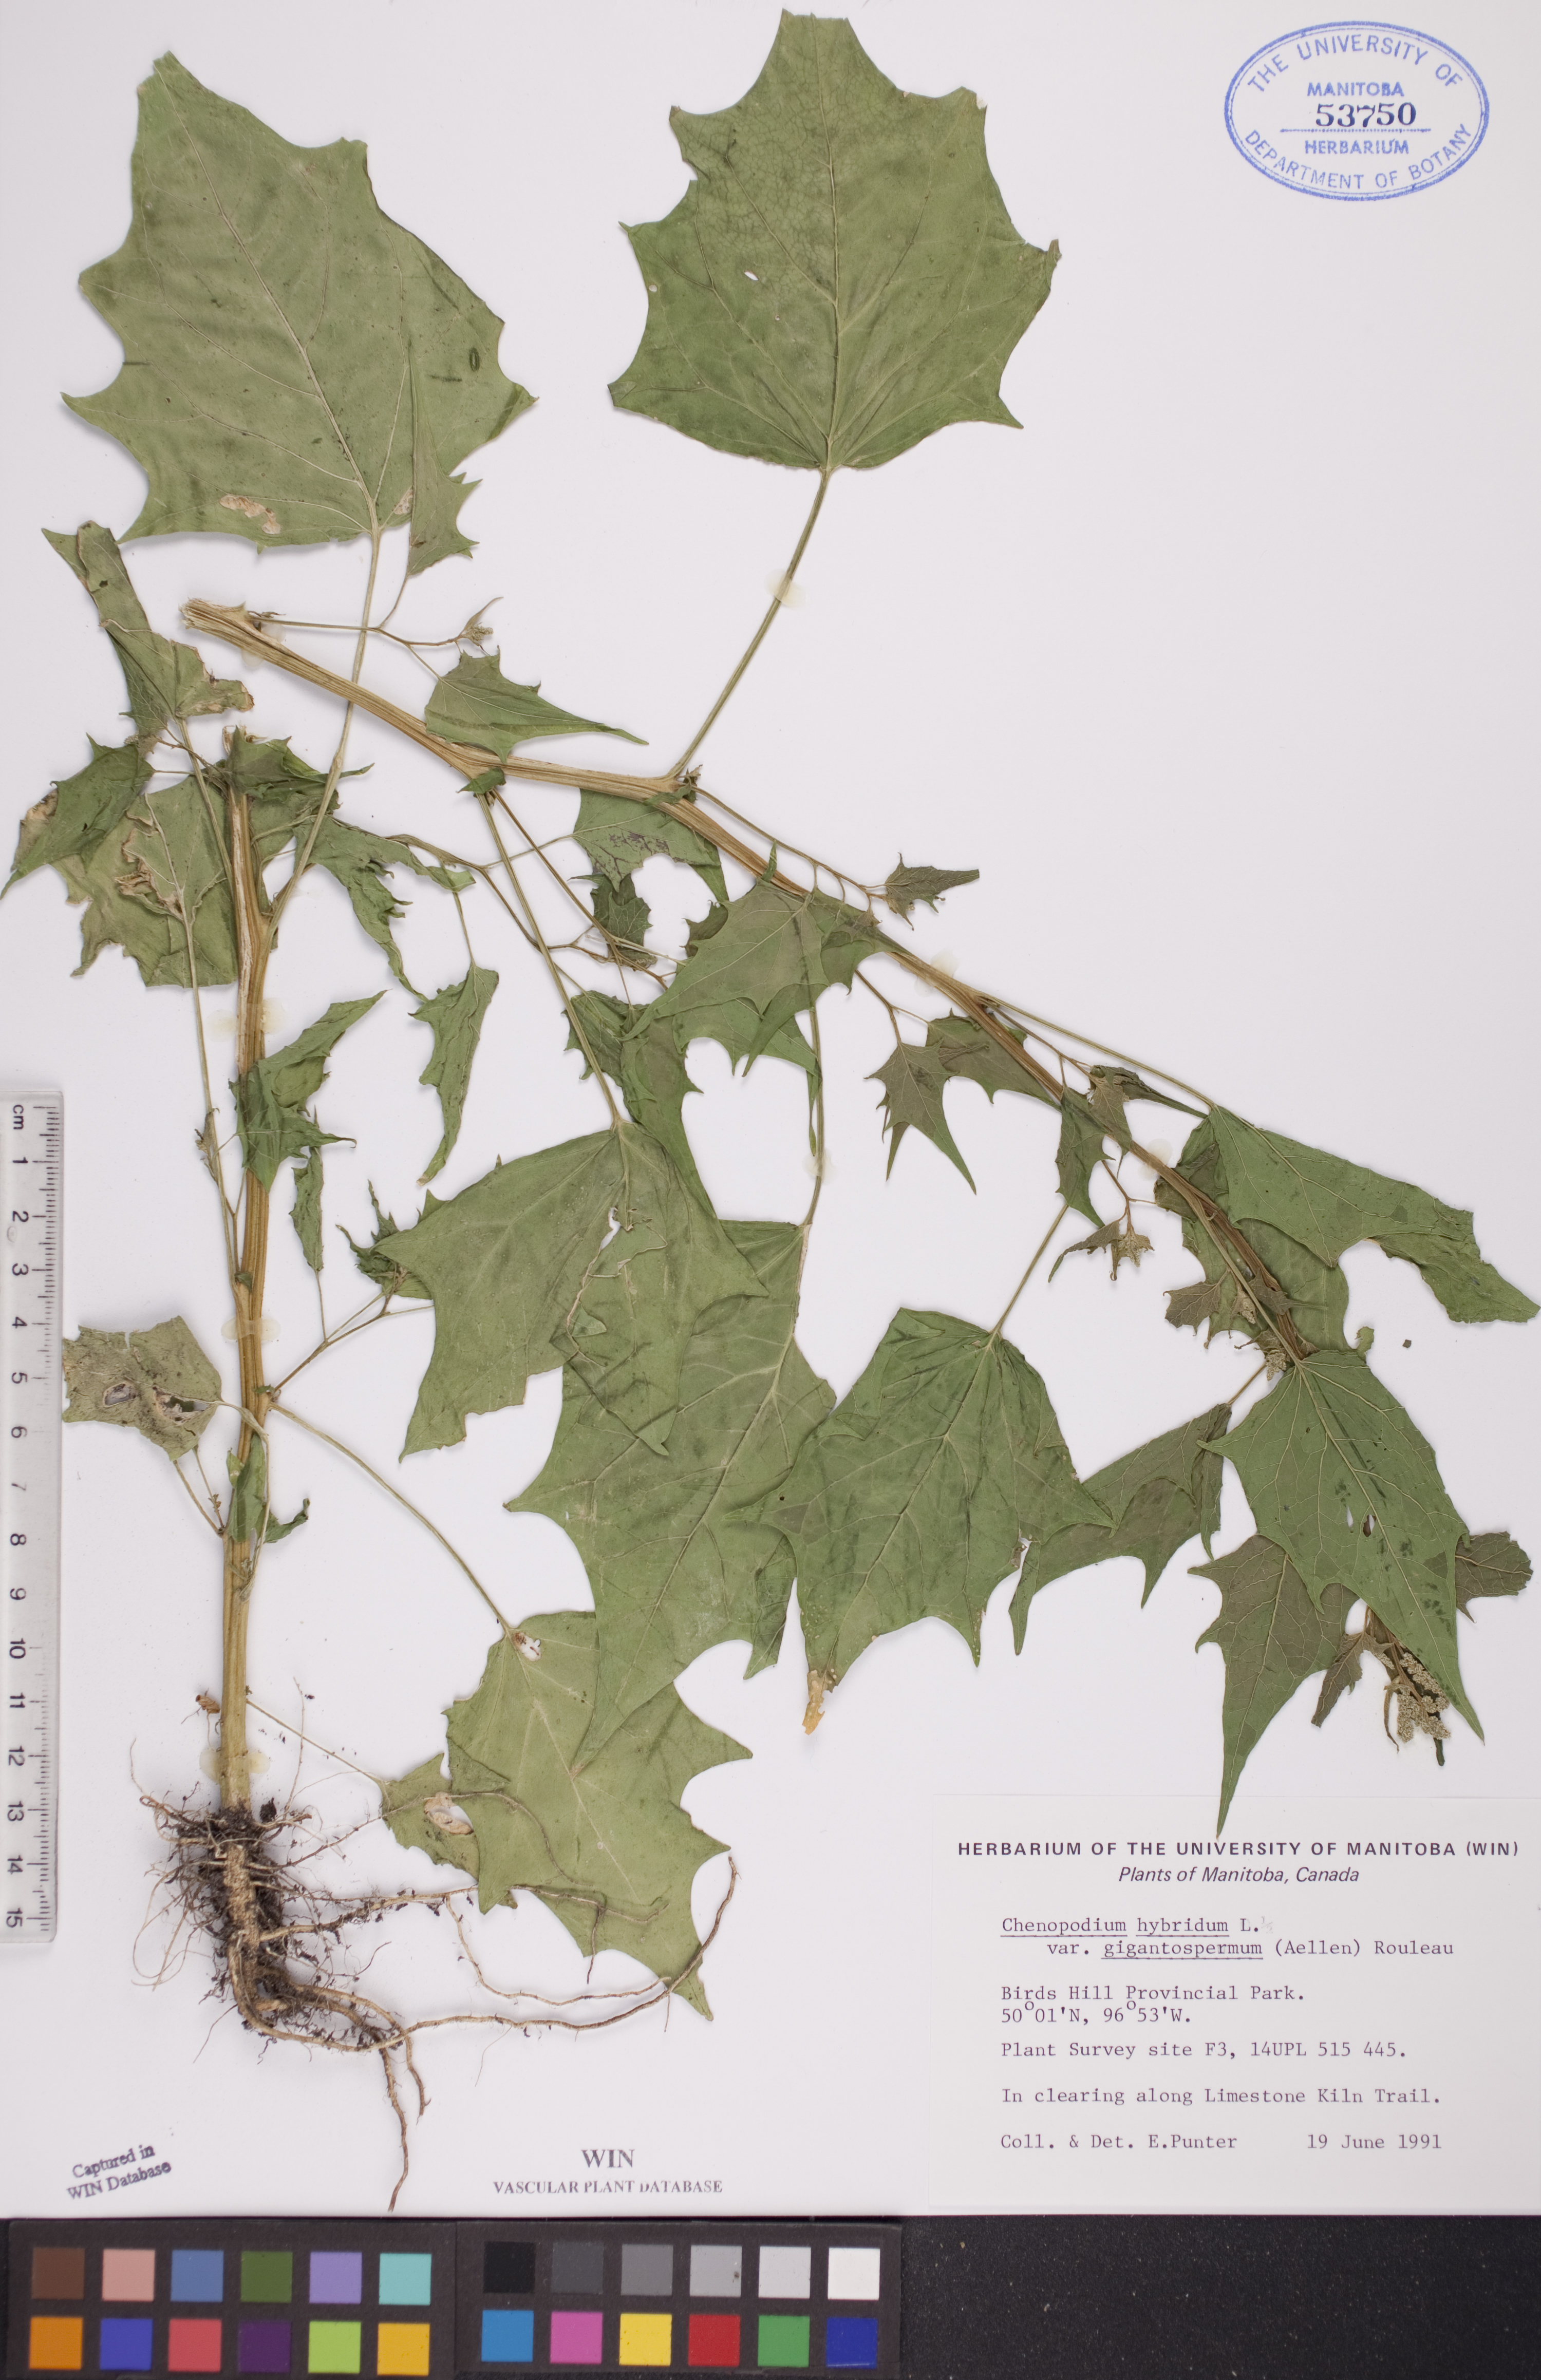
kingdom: Plantae
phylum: Tracheophyta
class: Magnoliopsida
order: Caryophyllales
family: Amaranthaceae
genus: Chenopodiastrum
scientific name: Chenopodiastrum simplex
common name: Large-seed goosefoot
